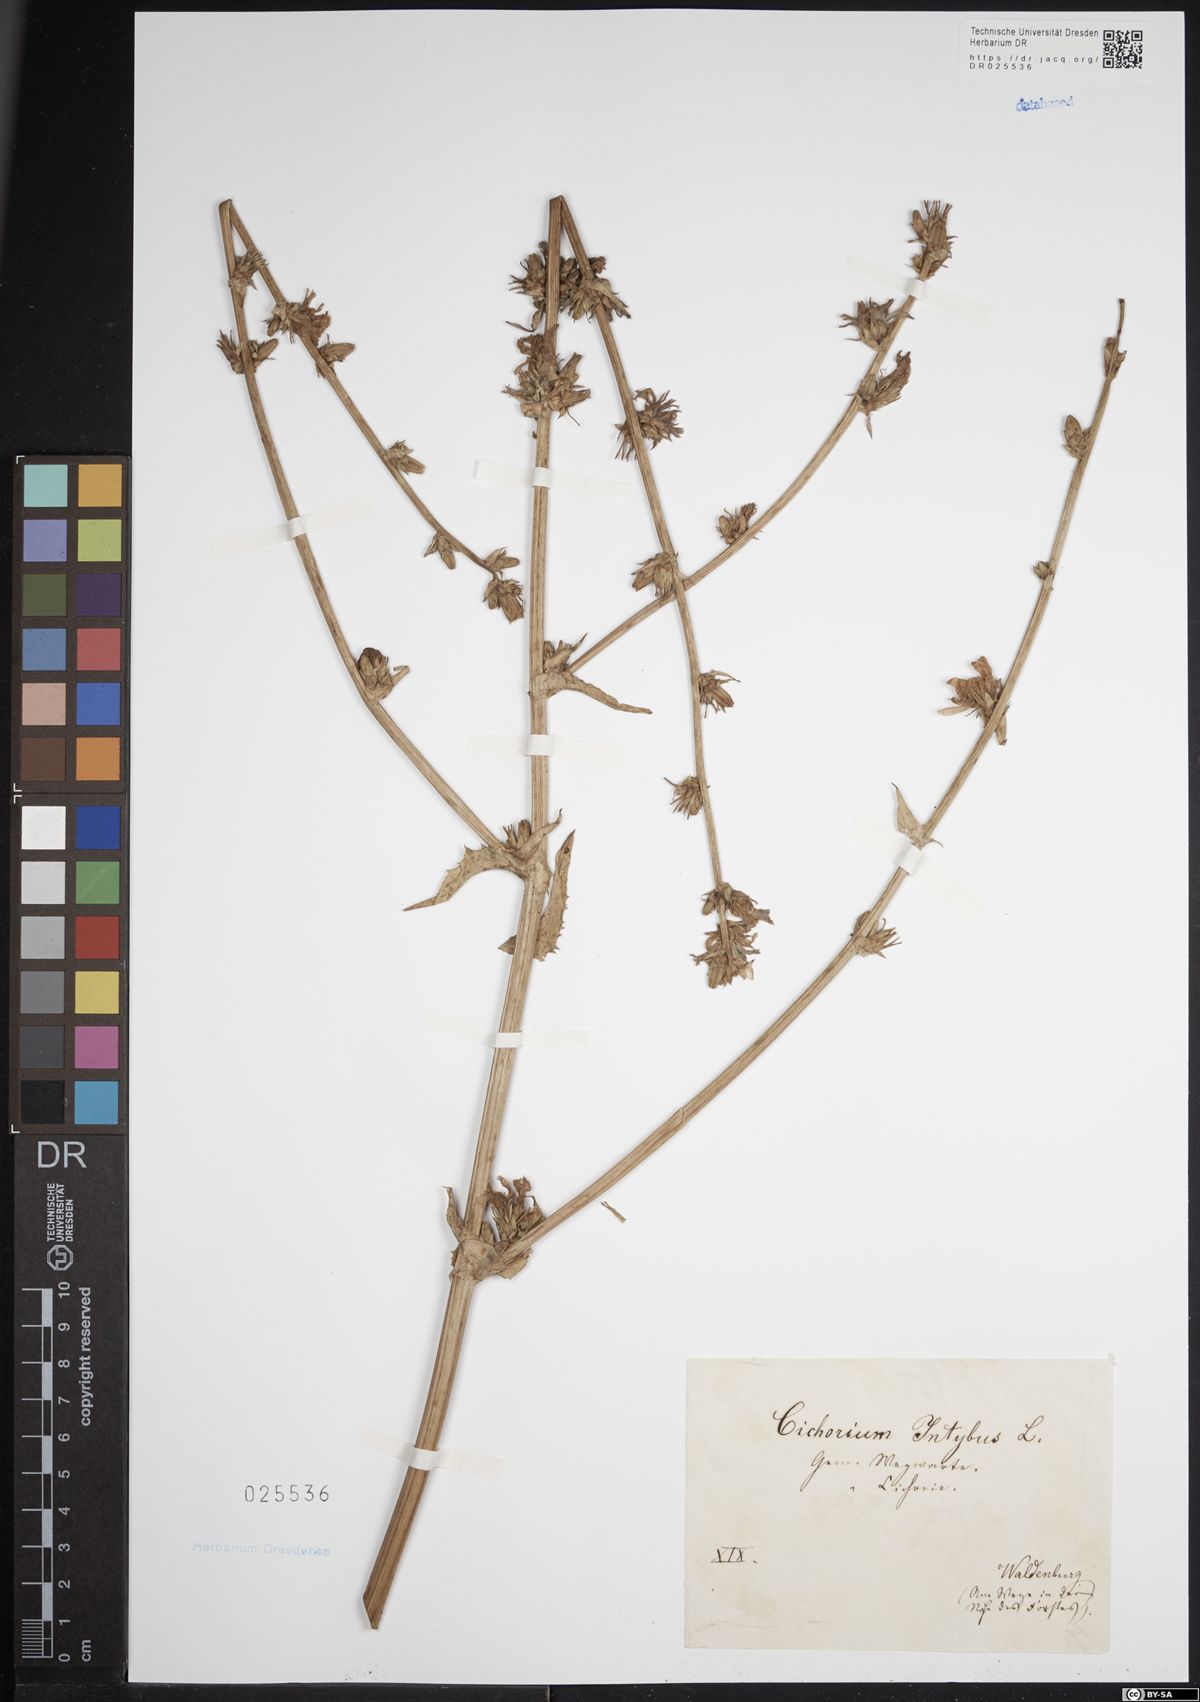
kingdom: Plantae
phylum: Tracheophyta
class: Magnoliopsida
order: Asterales
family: Asteraceae
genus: Cichorium
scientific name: Cichorium intybus
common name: Chicory
